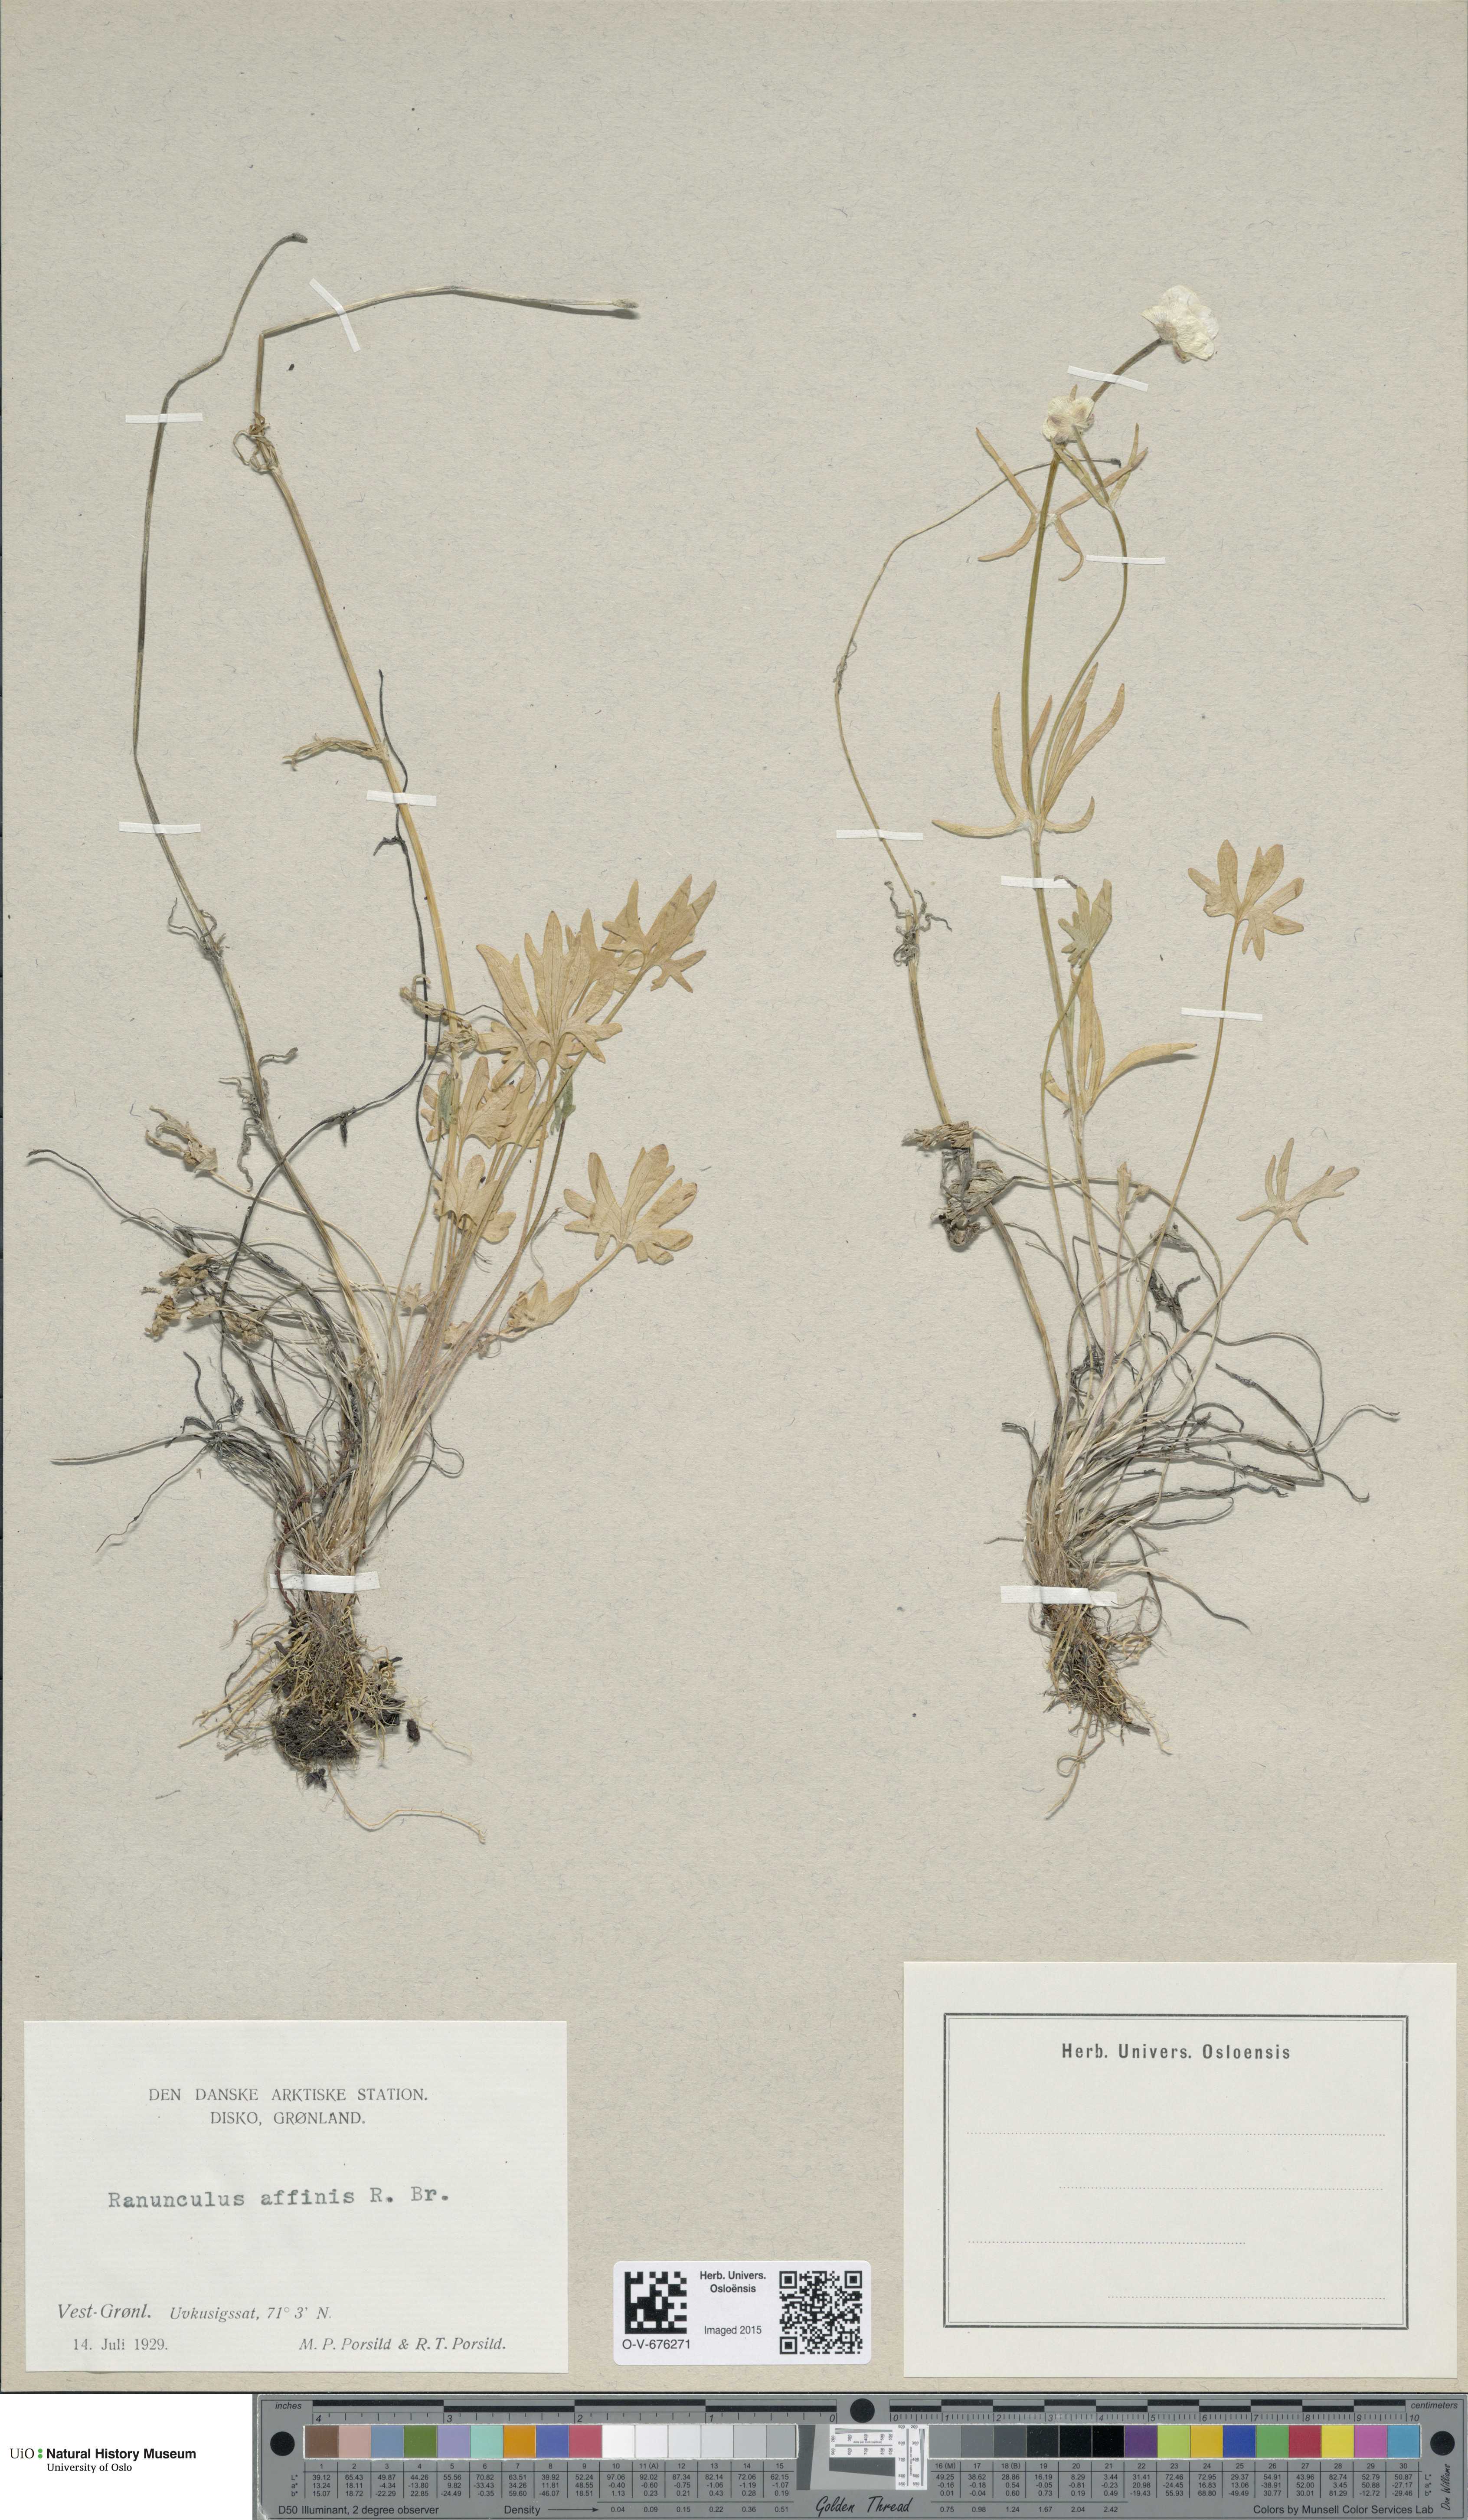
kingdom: Plantae
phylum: Tracheophyta
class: Magnoliopsida
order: Ranunculales
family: Ranunculaceae
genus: Ranunculus
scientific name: Ranunculus arcticus
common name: Bird's-foot buttercup
